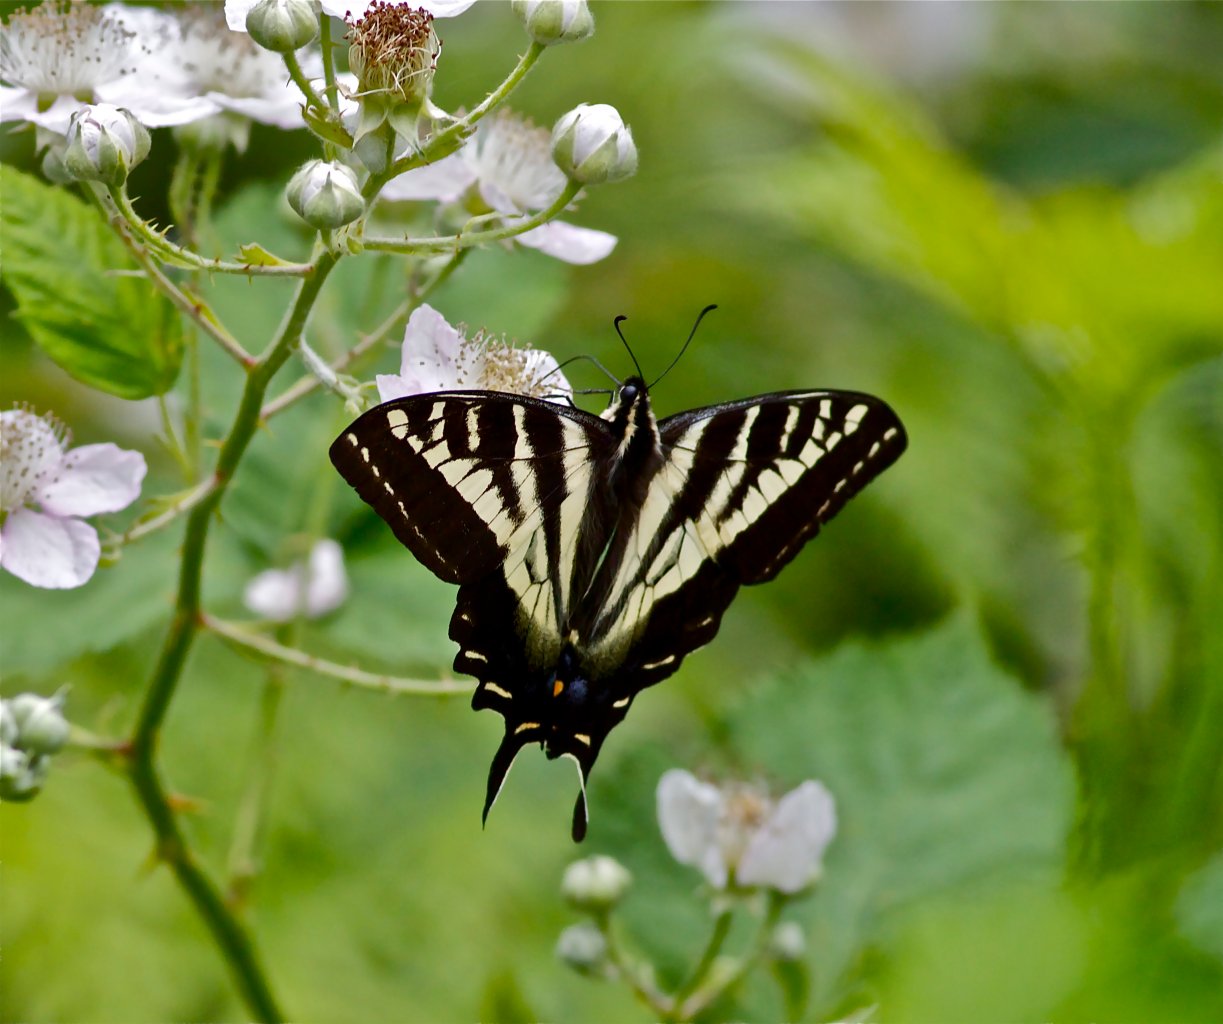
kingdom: Animalia
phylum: Arthropoda
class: Insecta
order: Lepidoptera
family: Papilionidae
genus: Pterourus
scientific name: Pterourus eurymedon
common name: Pale Swallowtail
